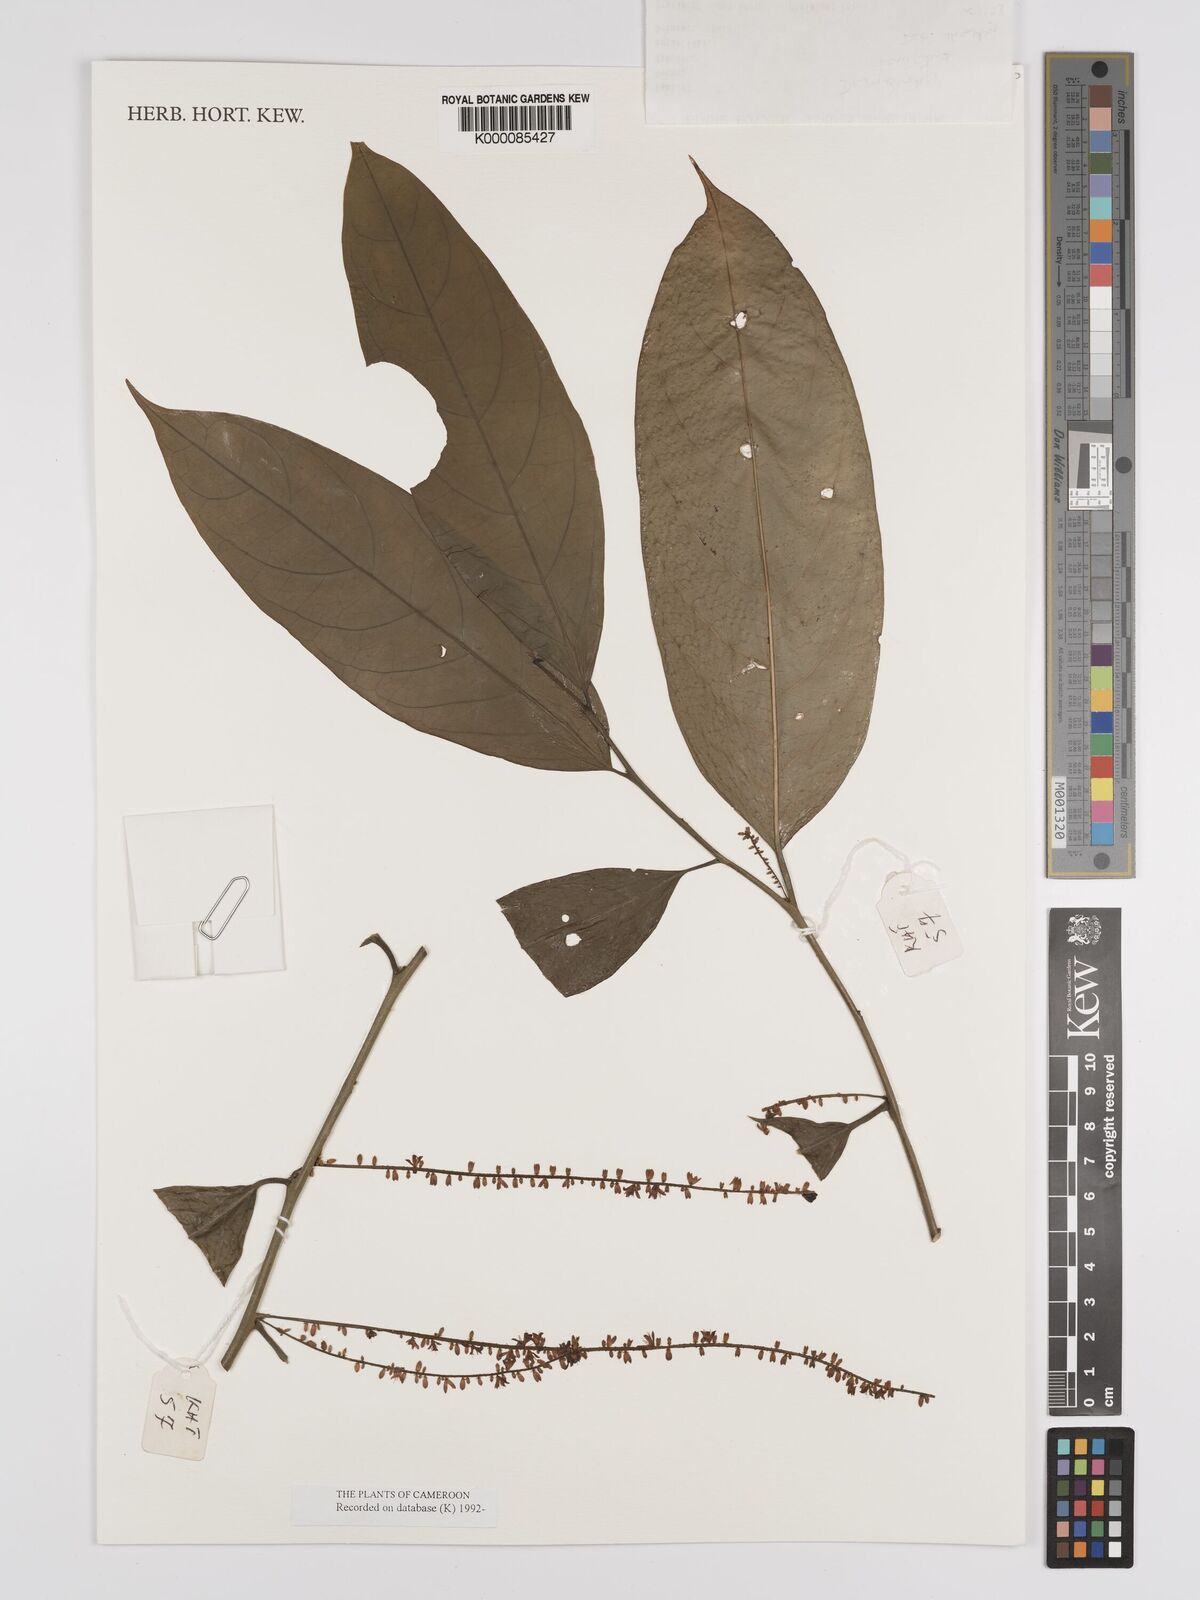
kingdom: Plantae
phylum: Tracheophyta
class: Magnoliopsida
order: Icacinales
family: Icacinaceae
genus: Vadensea
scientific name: Vadensea tenuifolia
